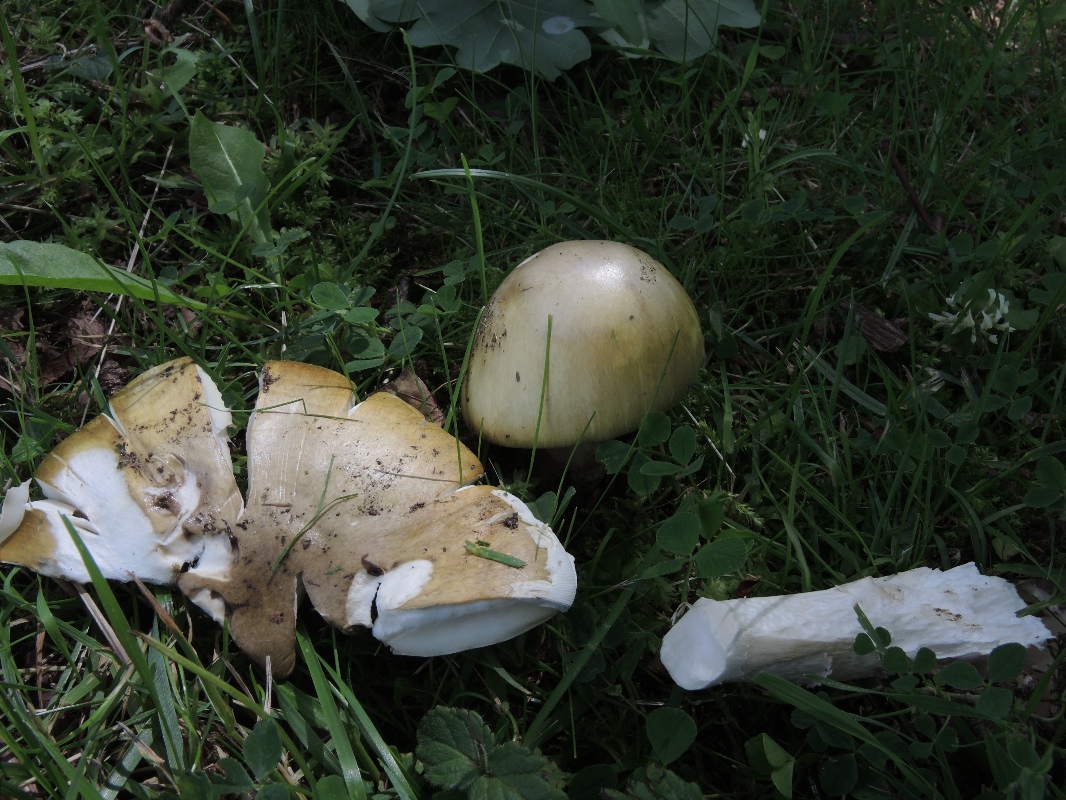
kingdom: Fungi
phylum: Basidiomycota
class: Agaricomycetes
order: Agaricales
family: Amanitaceae
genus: Amanita
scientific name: Amanita phalloides
